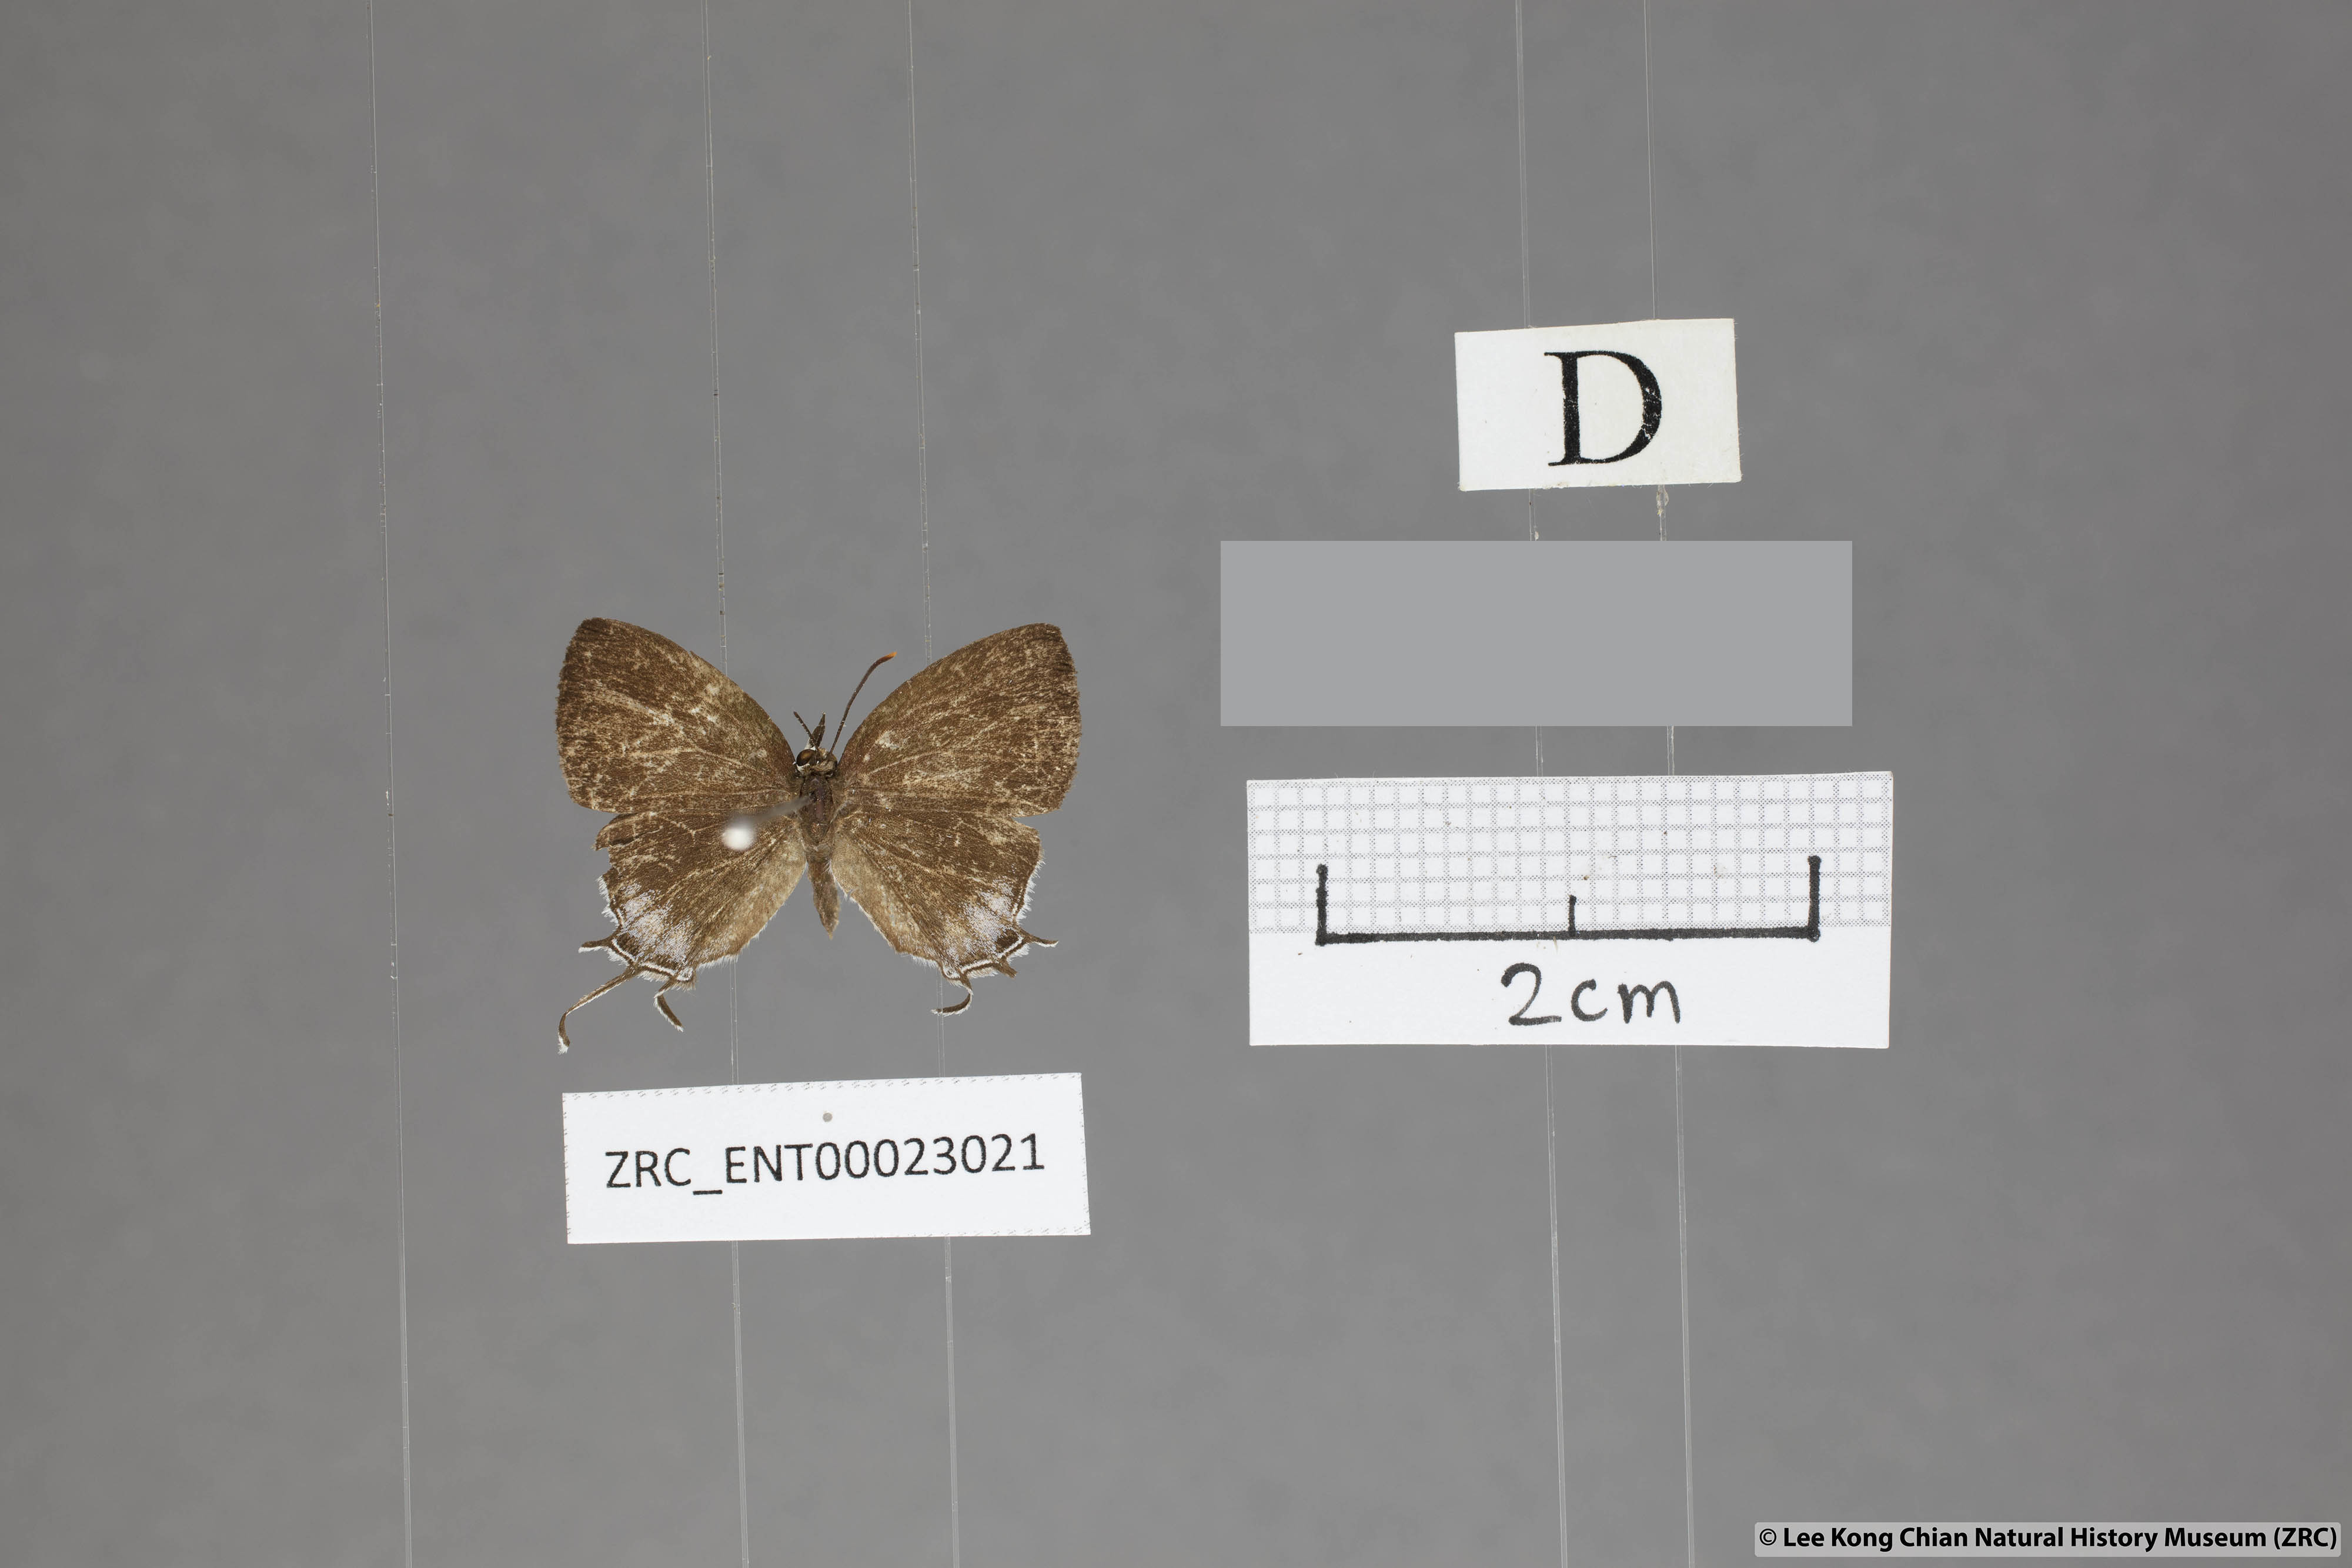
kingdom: Animalia
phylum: Arthropoda
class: Insecta
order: Lepidoptera
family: Lycaenidae
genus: Drupadia
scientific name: Drupadia scaeva
